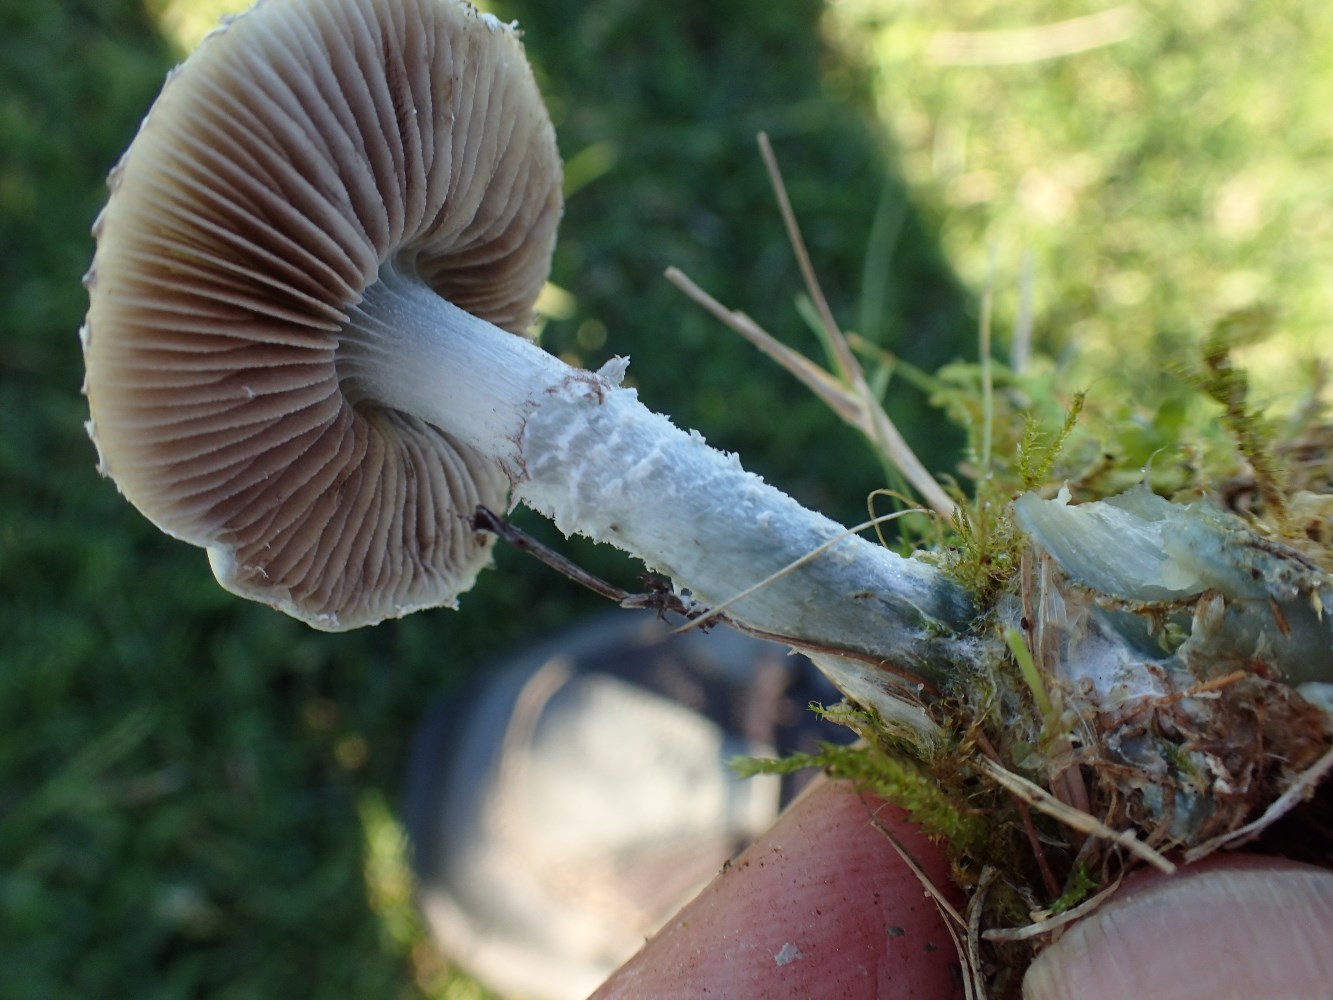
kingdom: Fungi
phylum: Basidiomycota
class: Agaricomycetes
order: Agaricales
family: Strophariaceae
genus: Stropharia
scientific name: Stropharia cyanea
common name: blågrøn bredblad
